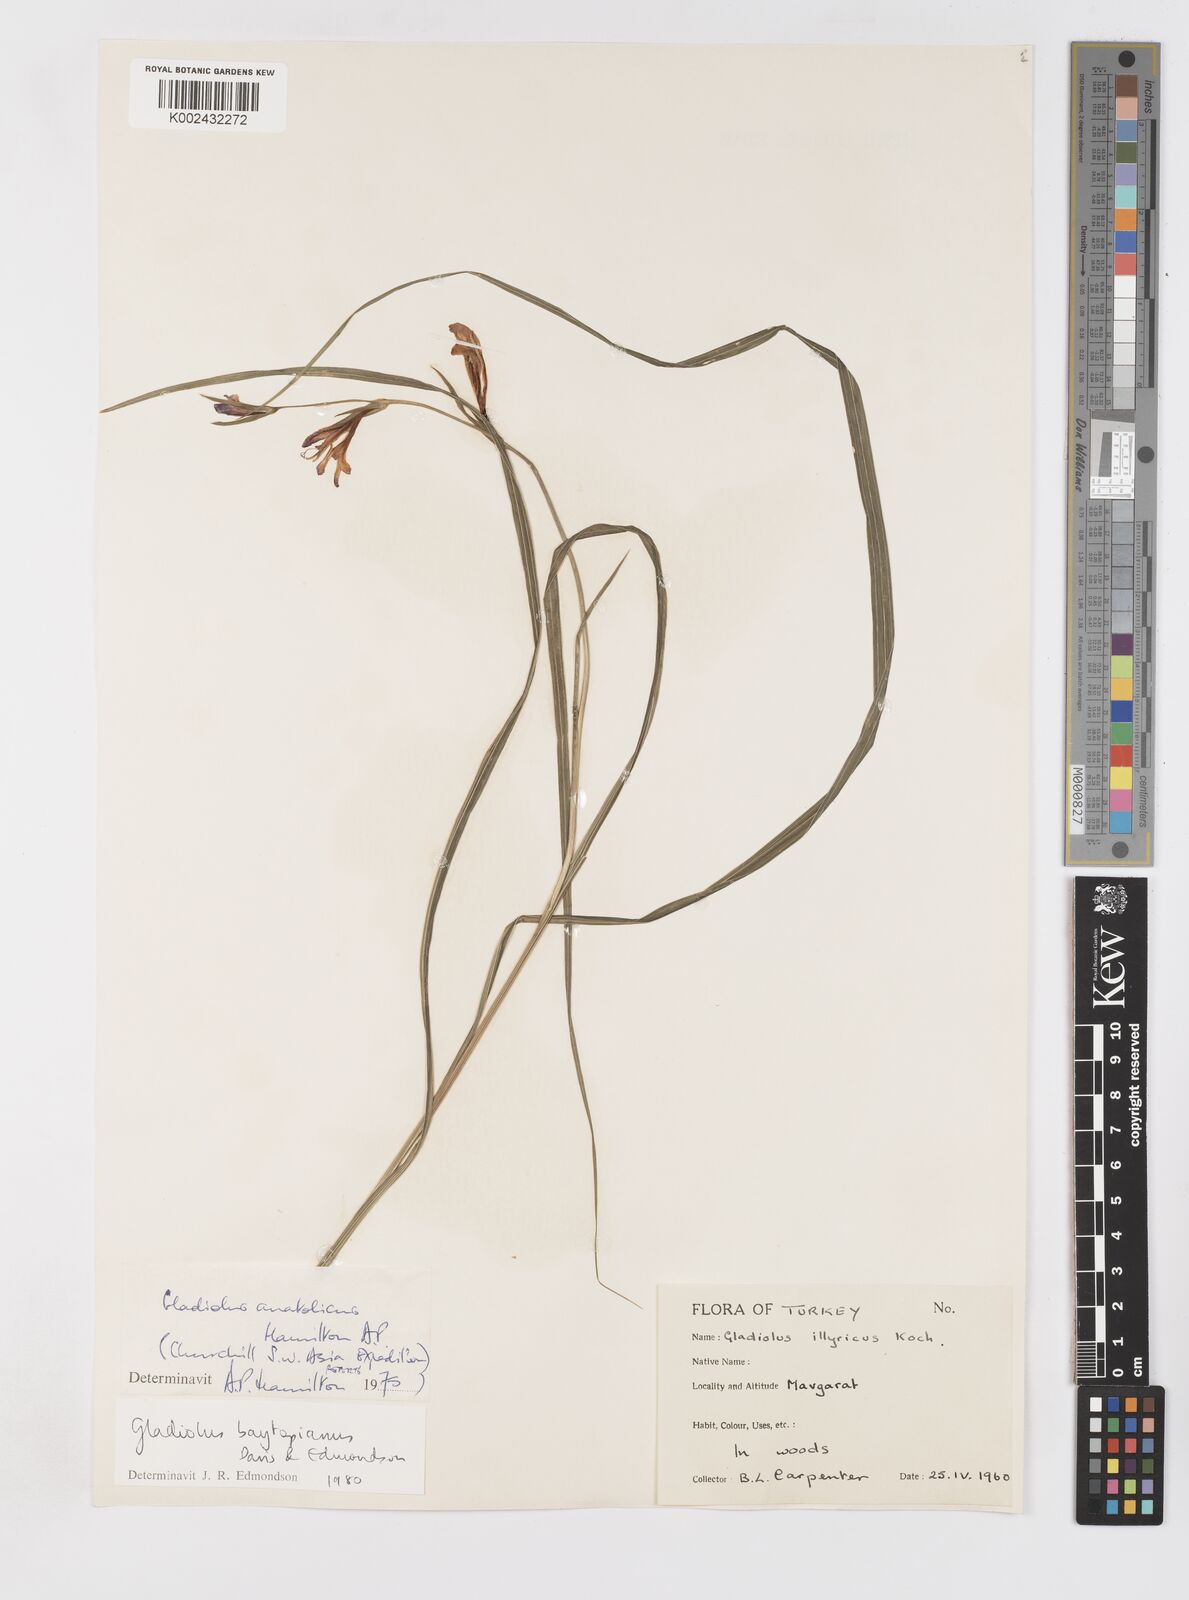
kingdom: Plantae
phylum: Tracheophyta
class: Liliopsida
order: Asparagales
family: Iridaceae
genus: Gladiolus
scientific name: Gladiolus
